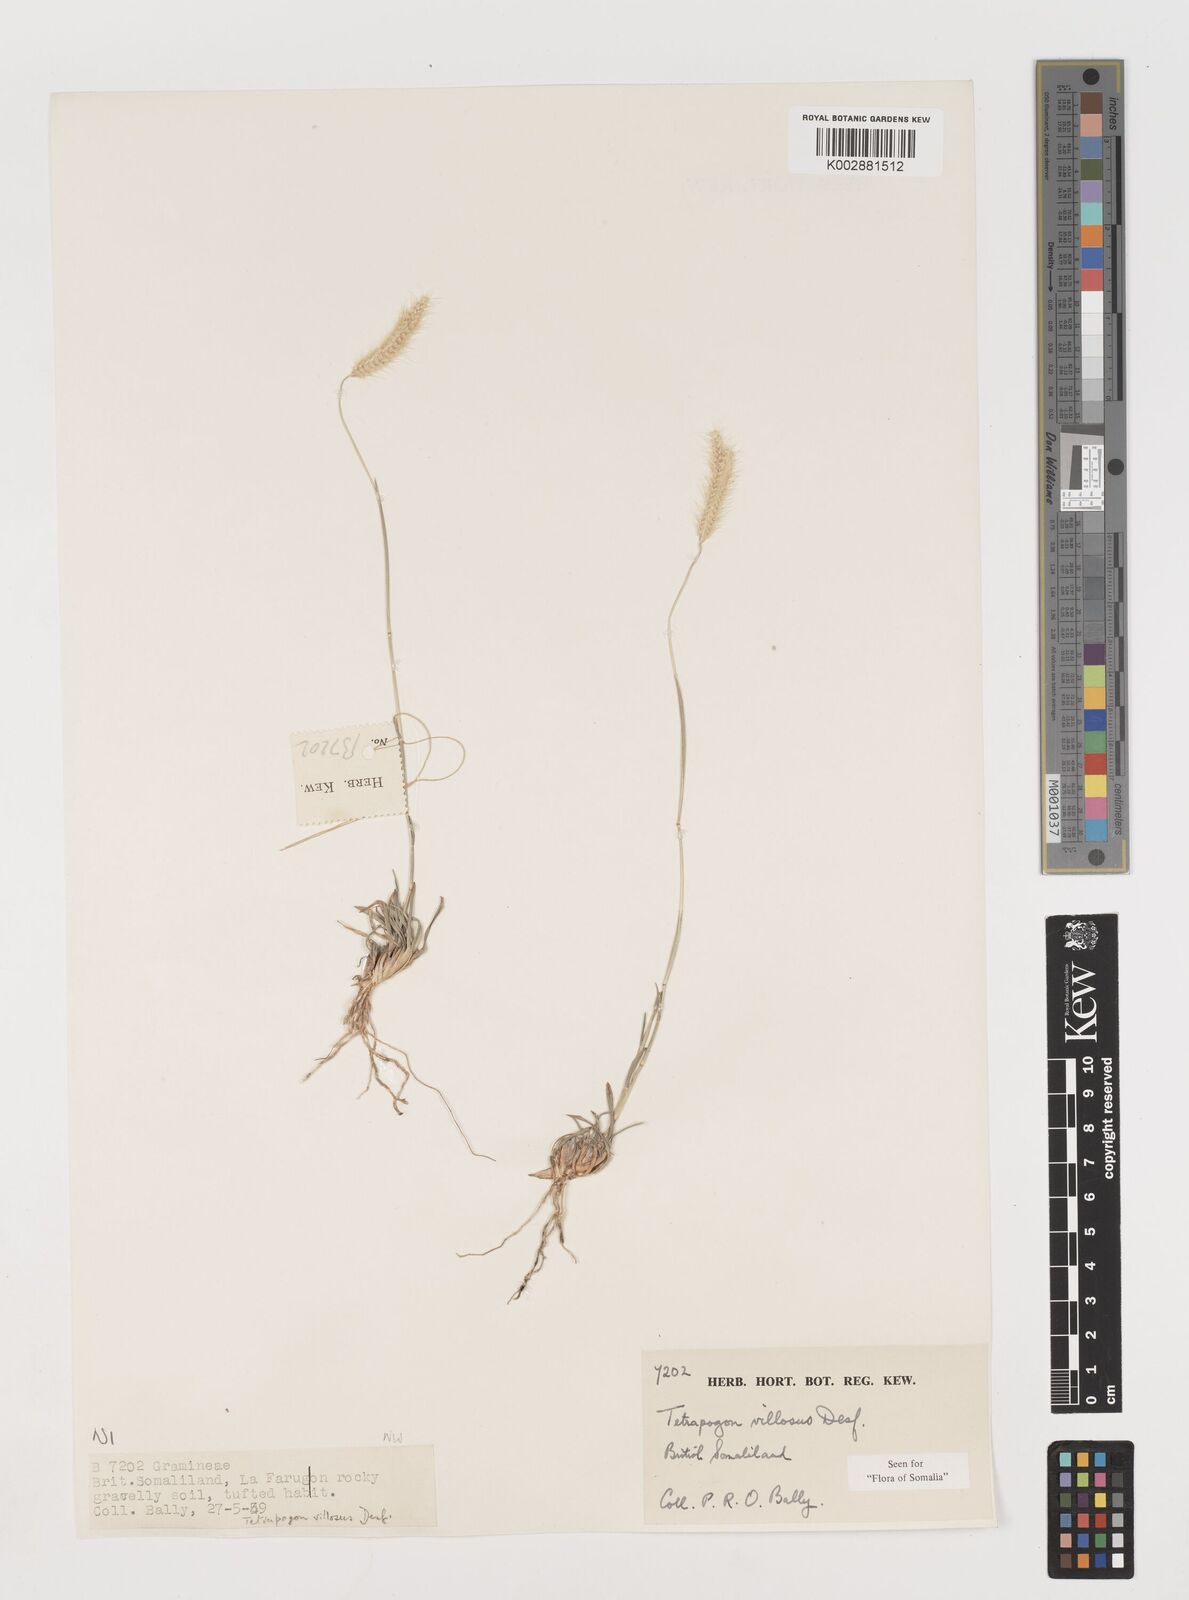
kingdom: Plantae
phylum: Tracheophyta
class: Liliopsida
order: Poales
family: Poaceae
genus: Tetrapogon
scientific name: Tetrapogon villosus
